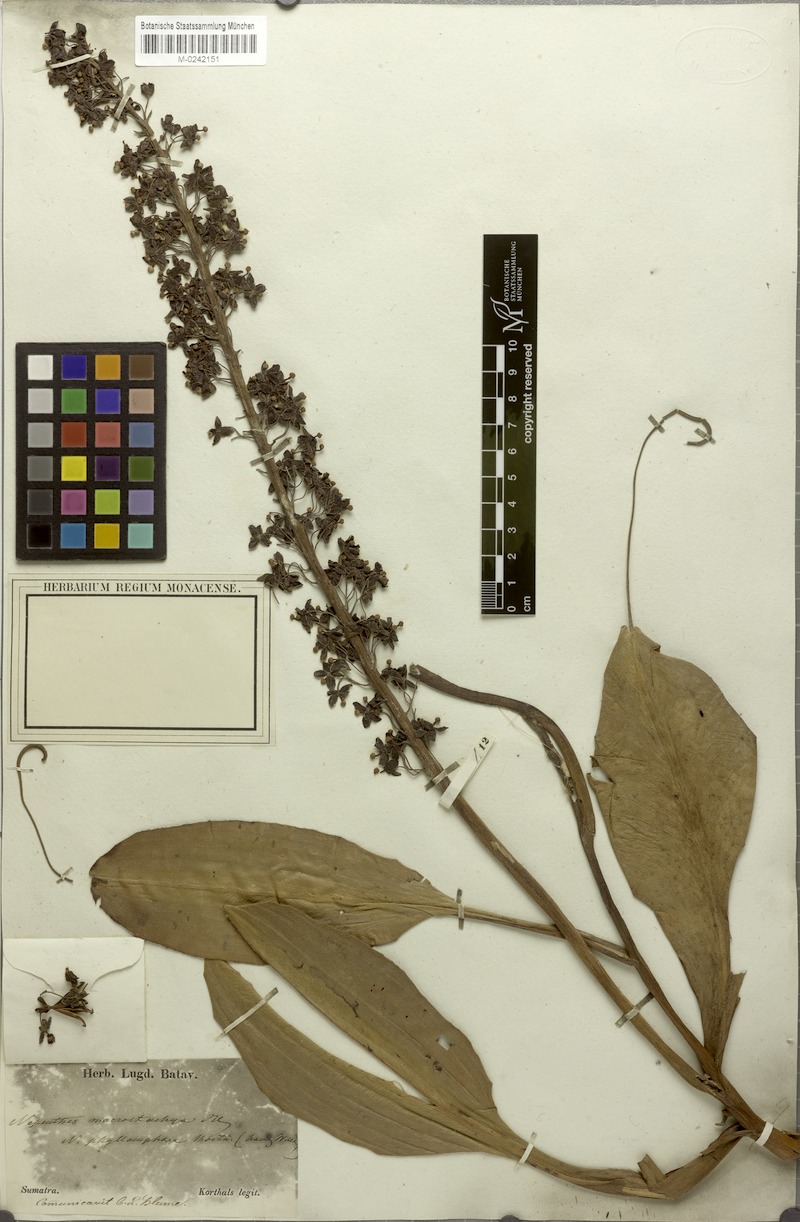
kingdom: Plantae
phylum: Tracheophyta
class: Magnoliopsida
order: Caryophyllales
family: Nepenthaceae
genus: Nepenthes
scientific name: Nepenthes mirabilis
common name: Tropical pitcherplant
